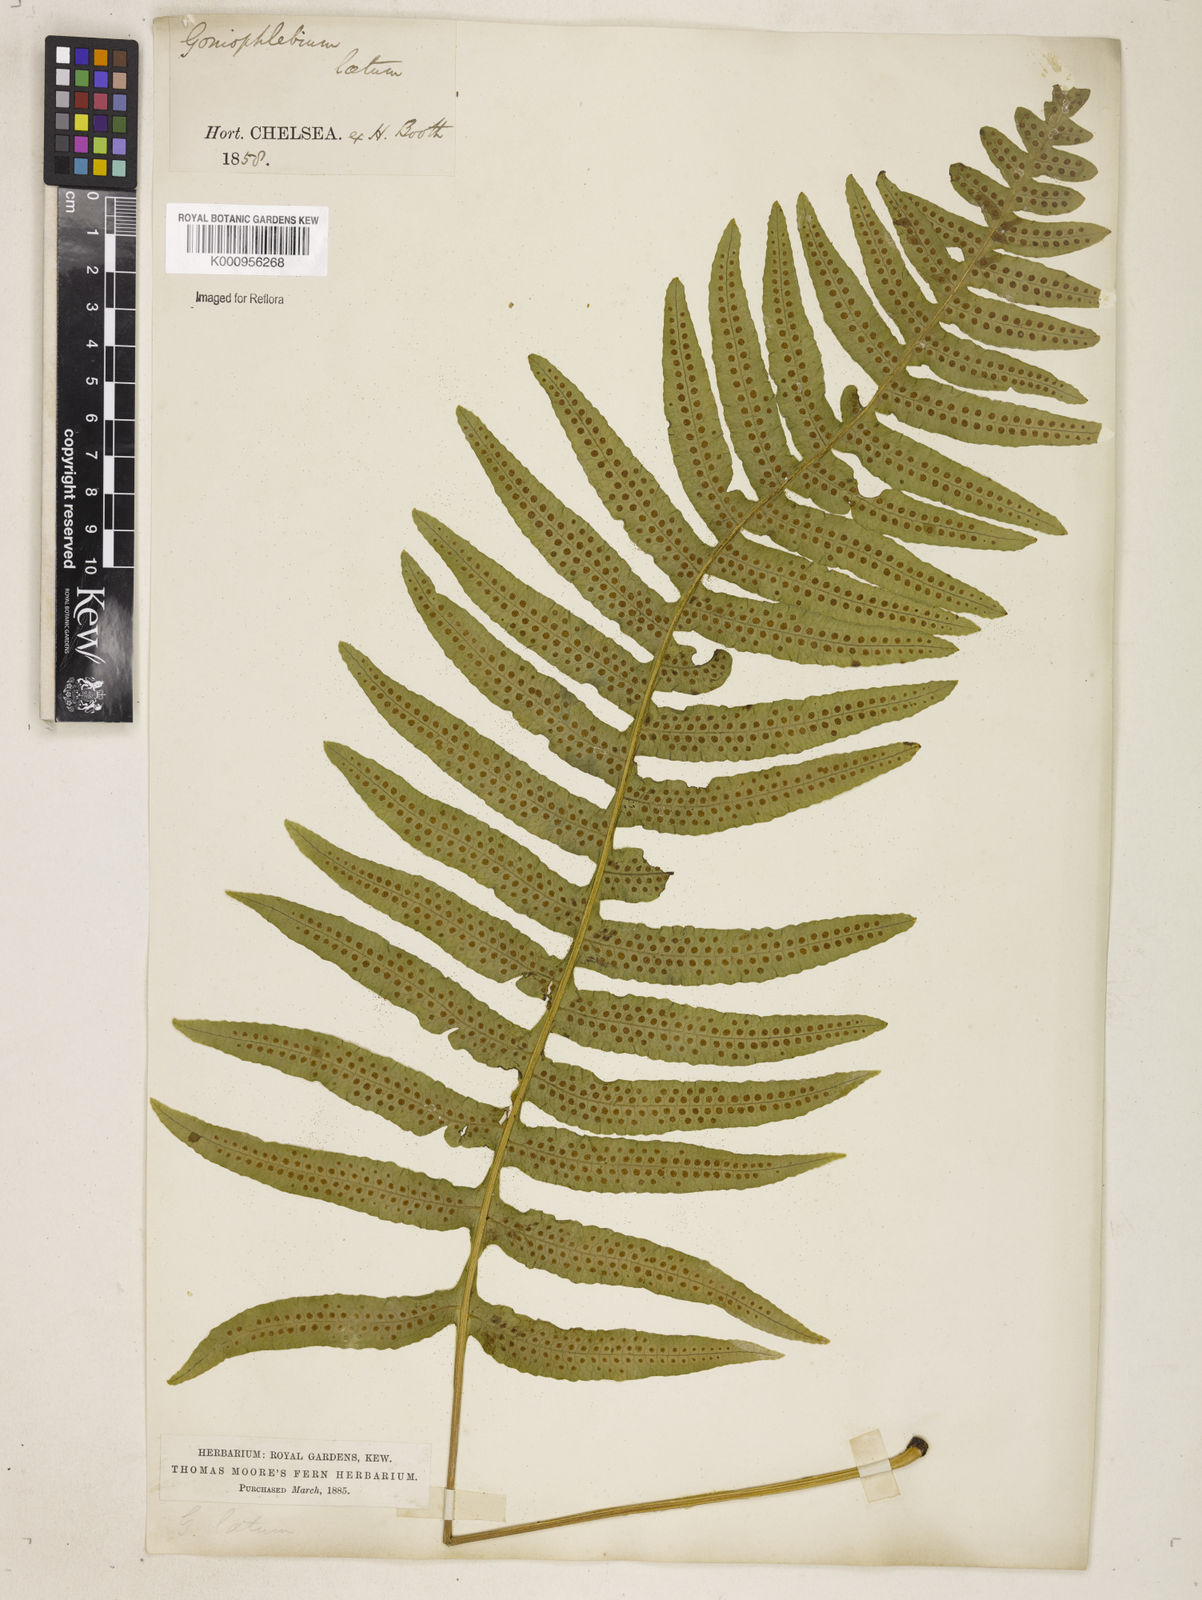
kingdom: Plantae
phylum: Tracheophyta
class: Polypodiopsida
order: Polypodiales
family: Polypodiaceae
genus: Serpocaulon
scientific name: Serpocaulon loriceum
